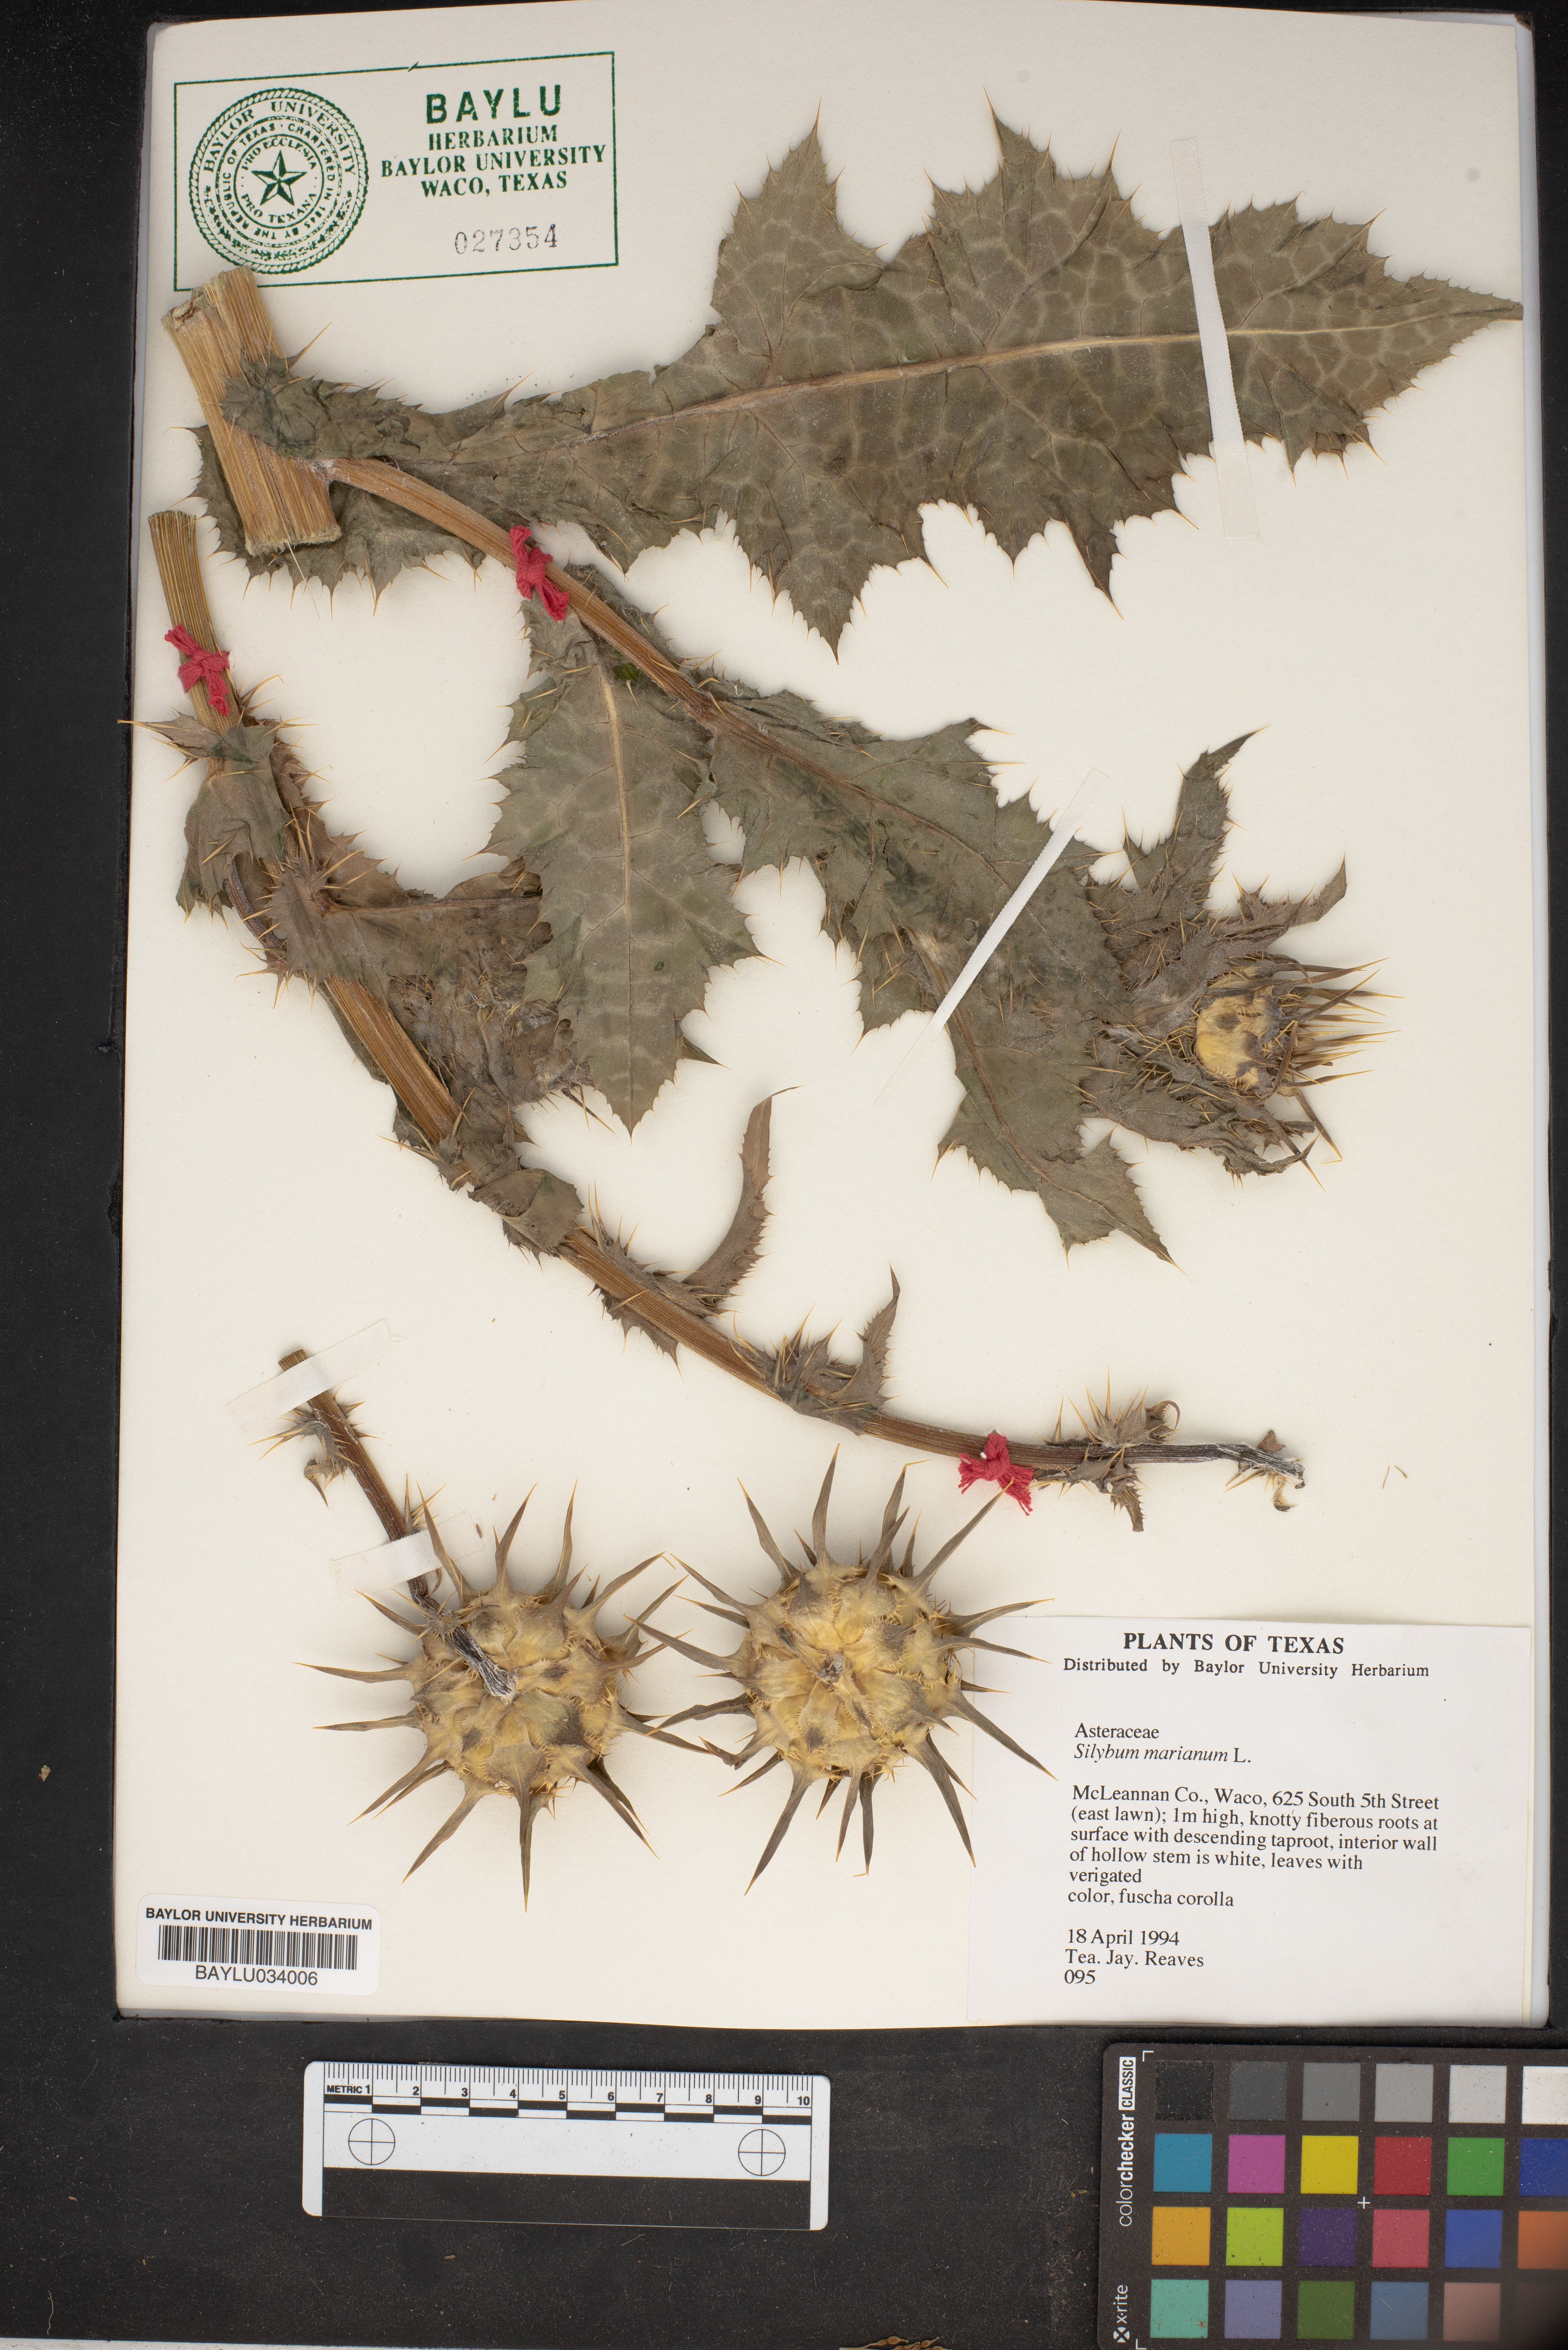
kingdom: Plantae
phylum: Tracheophyta
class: Magnoliopsida
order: Asterales
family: Asteraceae
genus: Silybum
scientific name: Silybum marianum
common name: Milk thistle
